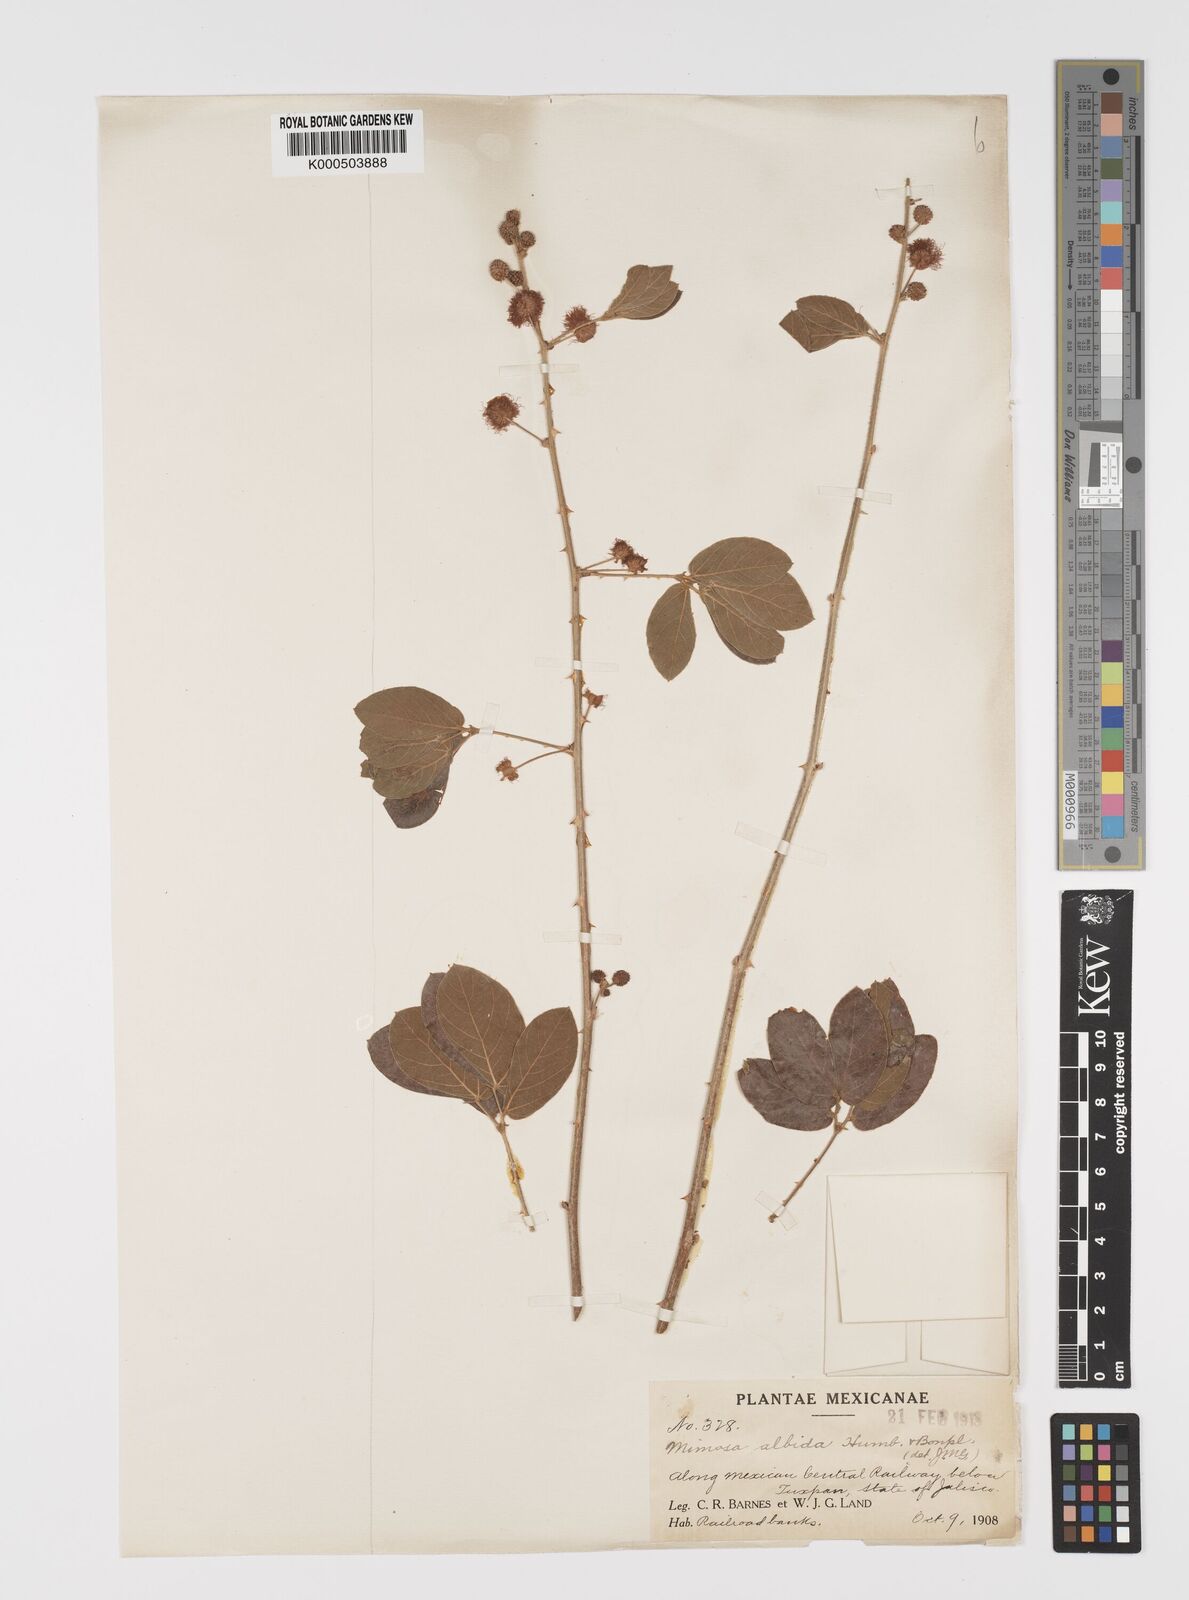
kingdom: Plantae
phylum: Tracheophyta
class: Magnoliopsida
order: Fabales
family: Fabaceae
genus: Mimosa
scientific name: Mimosa albida
